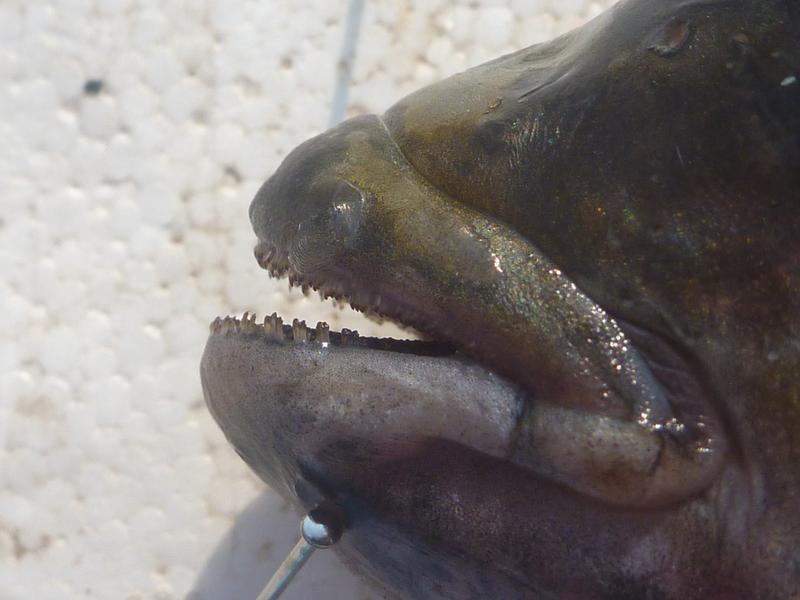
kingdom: Animalia
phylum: Chordata
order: Perciformes
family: Cichlidae
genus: Oreochromis
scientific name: Oreochromis karomo
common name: Karomo
